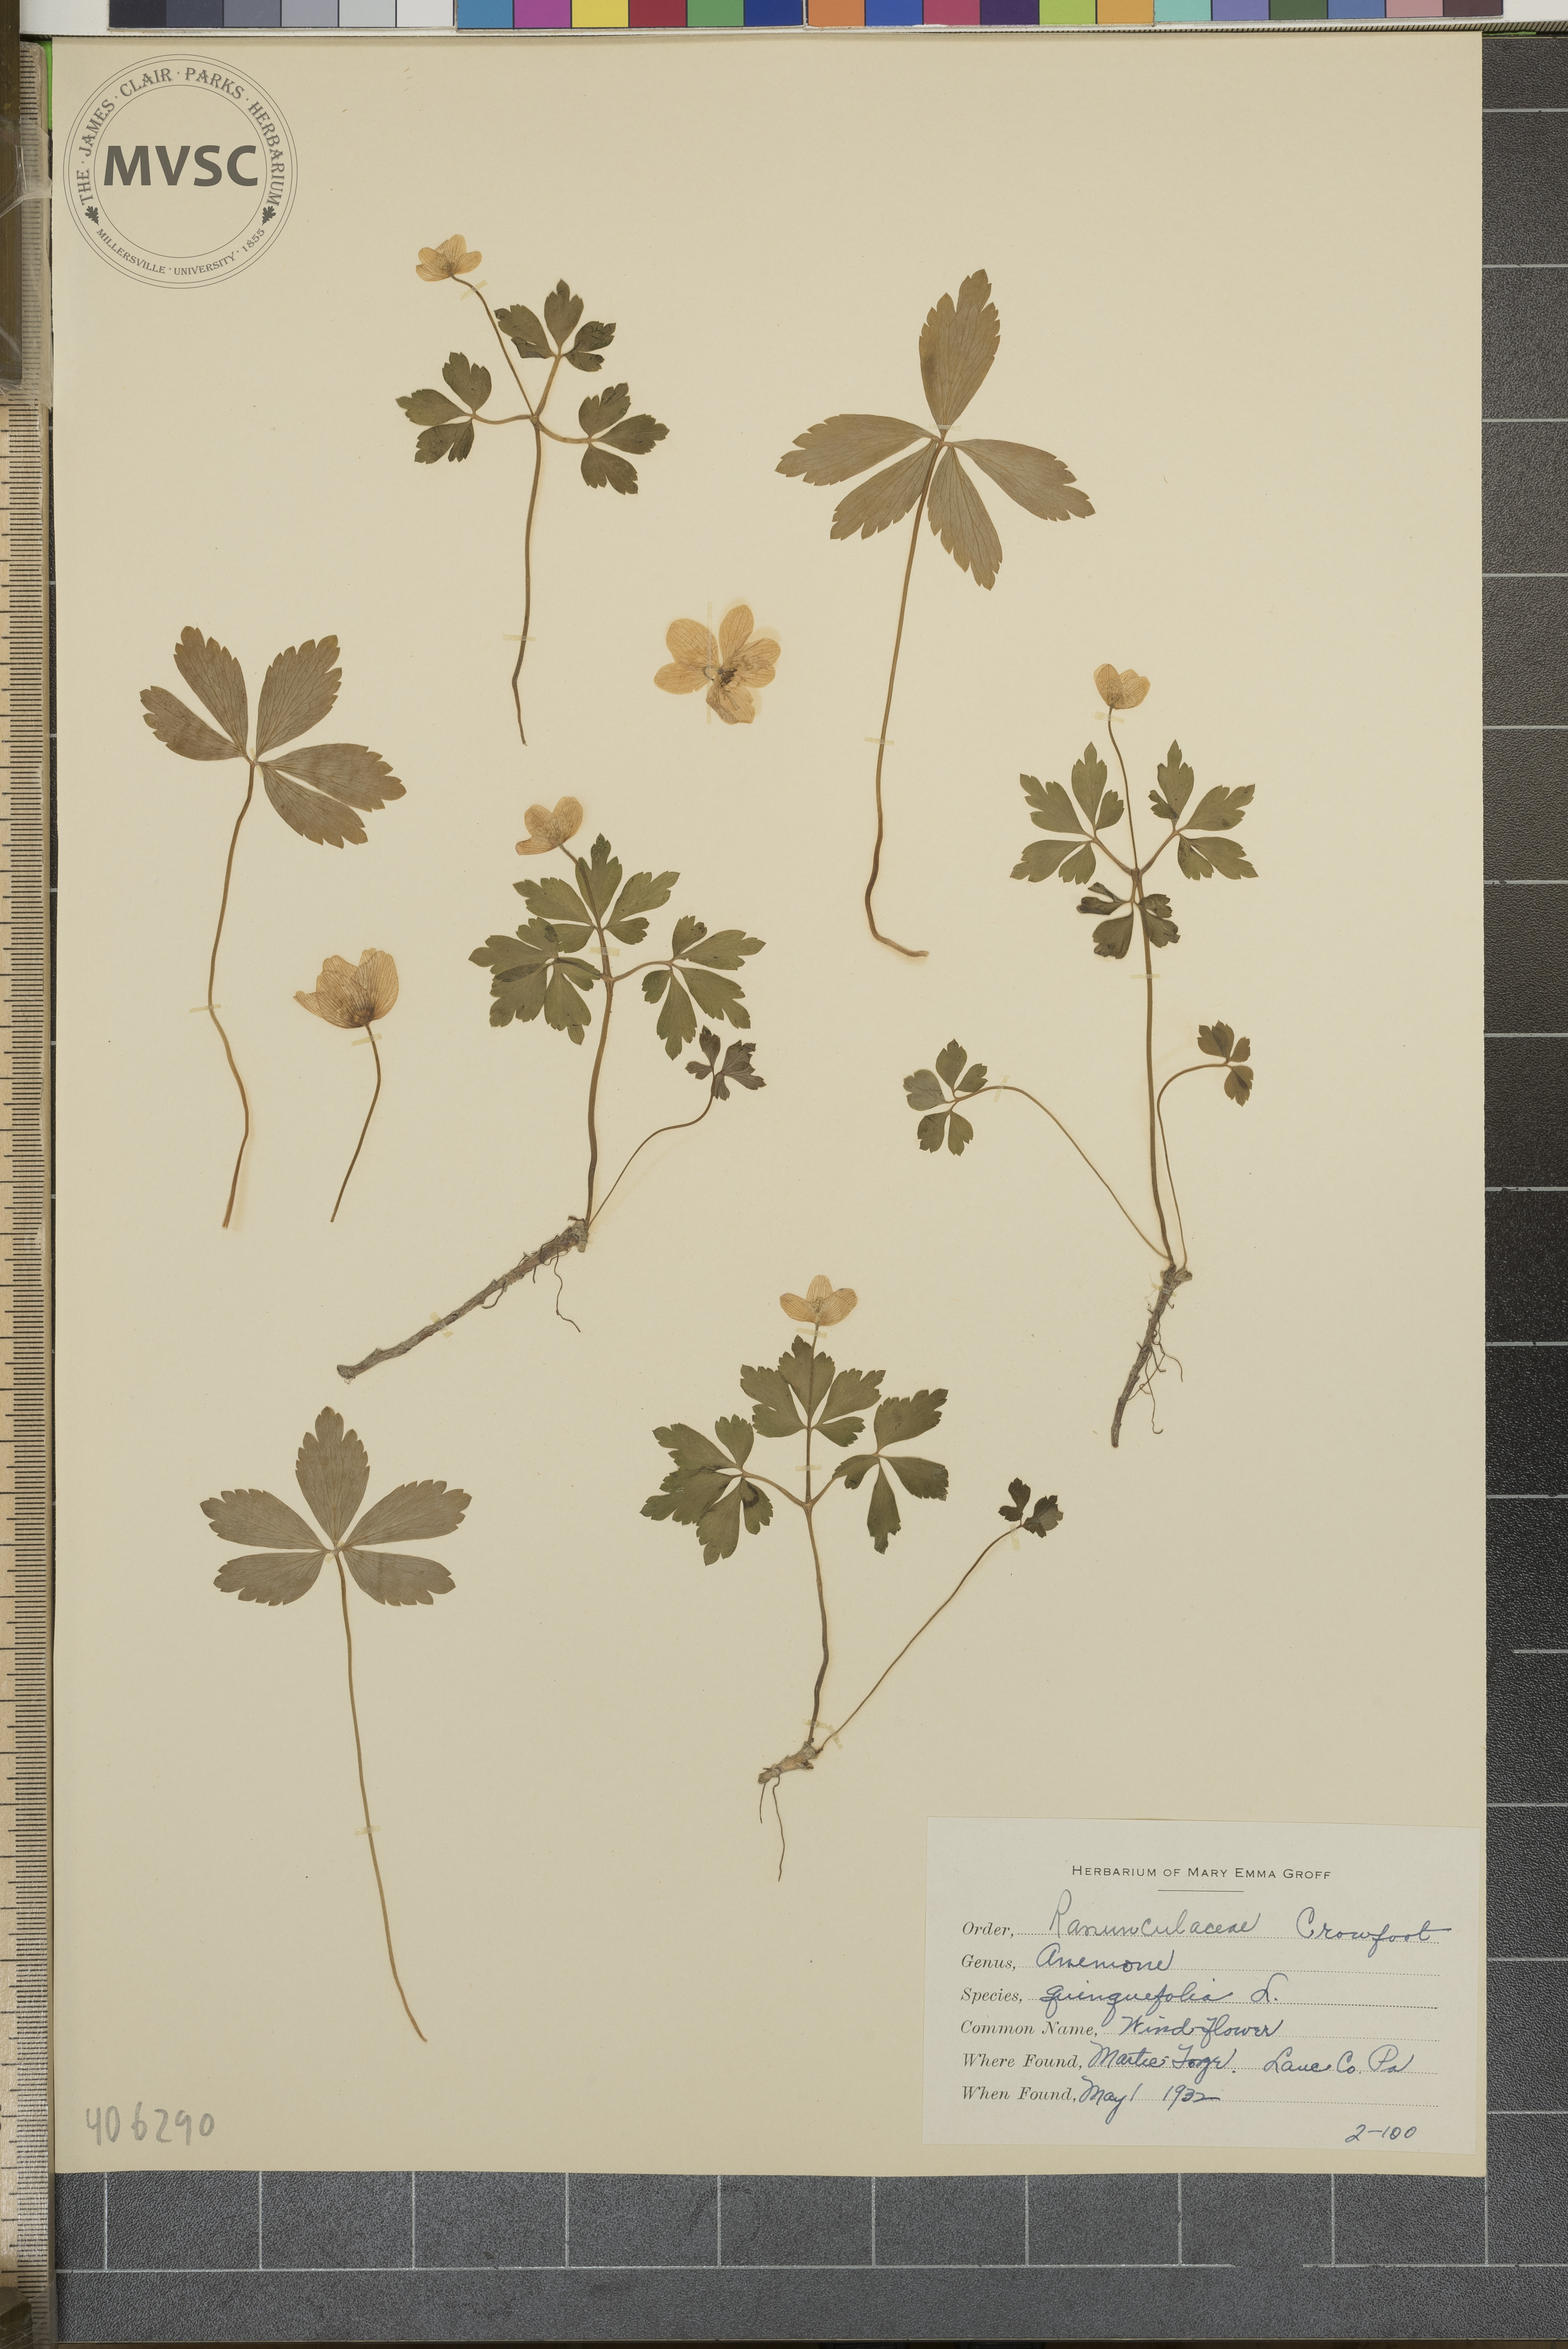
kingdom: Plantae
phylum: Tracheophyta
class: Magnoliopsida
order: Ranunculales
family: Ranunculaceae
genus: Anemone
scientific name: Anemone quinquefolia
